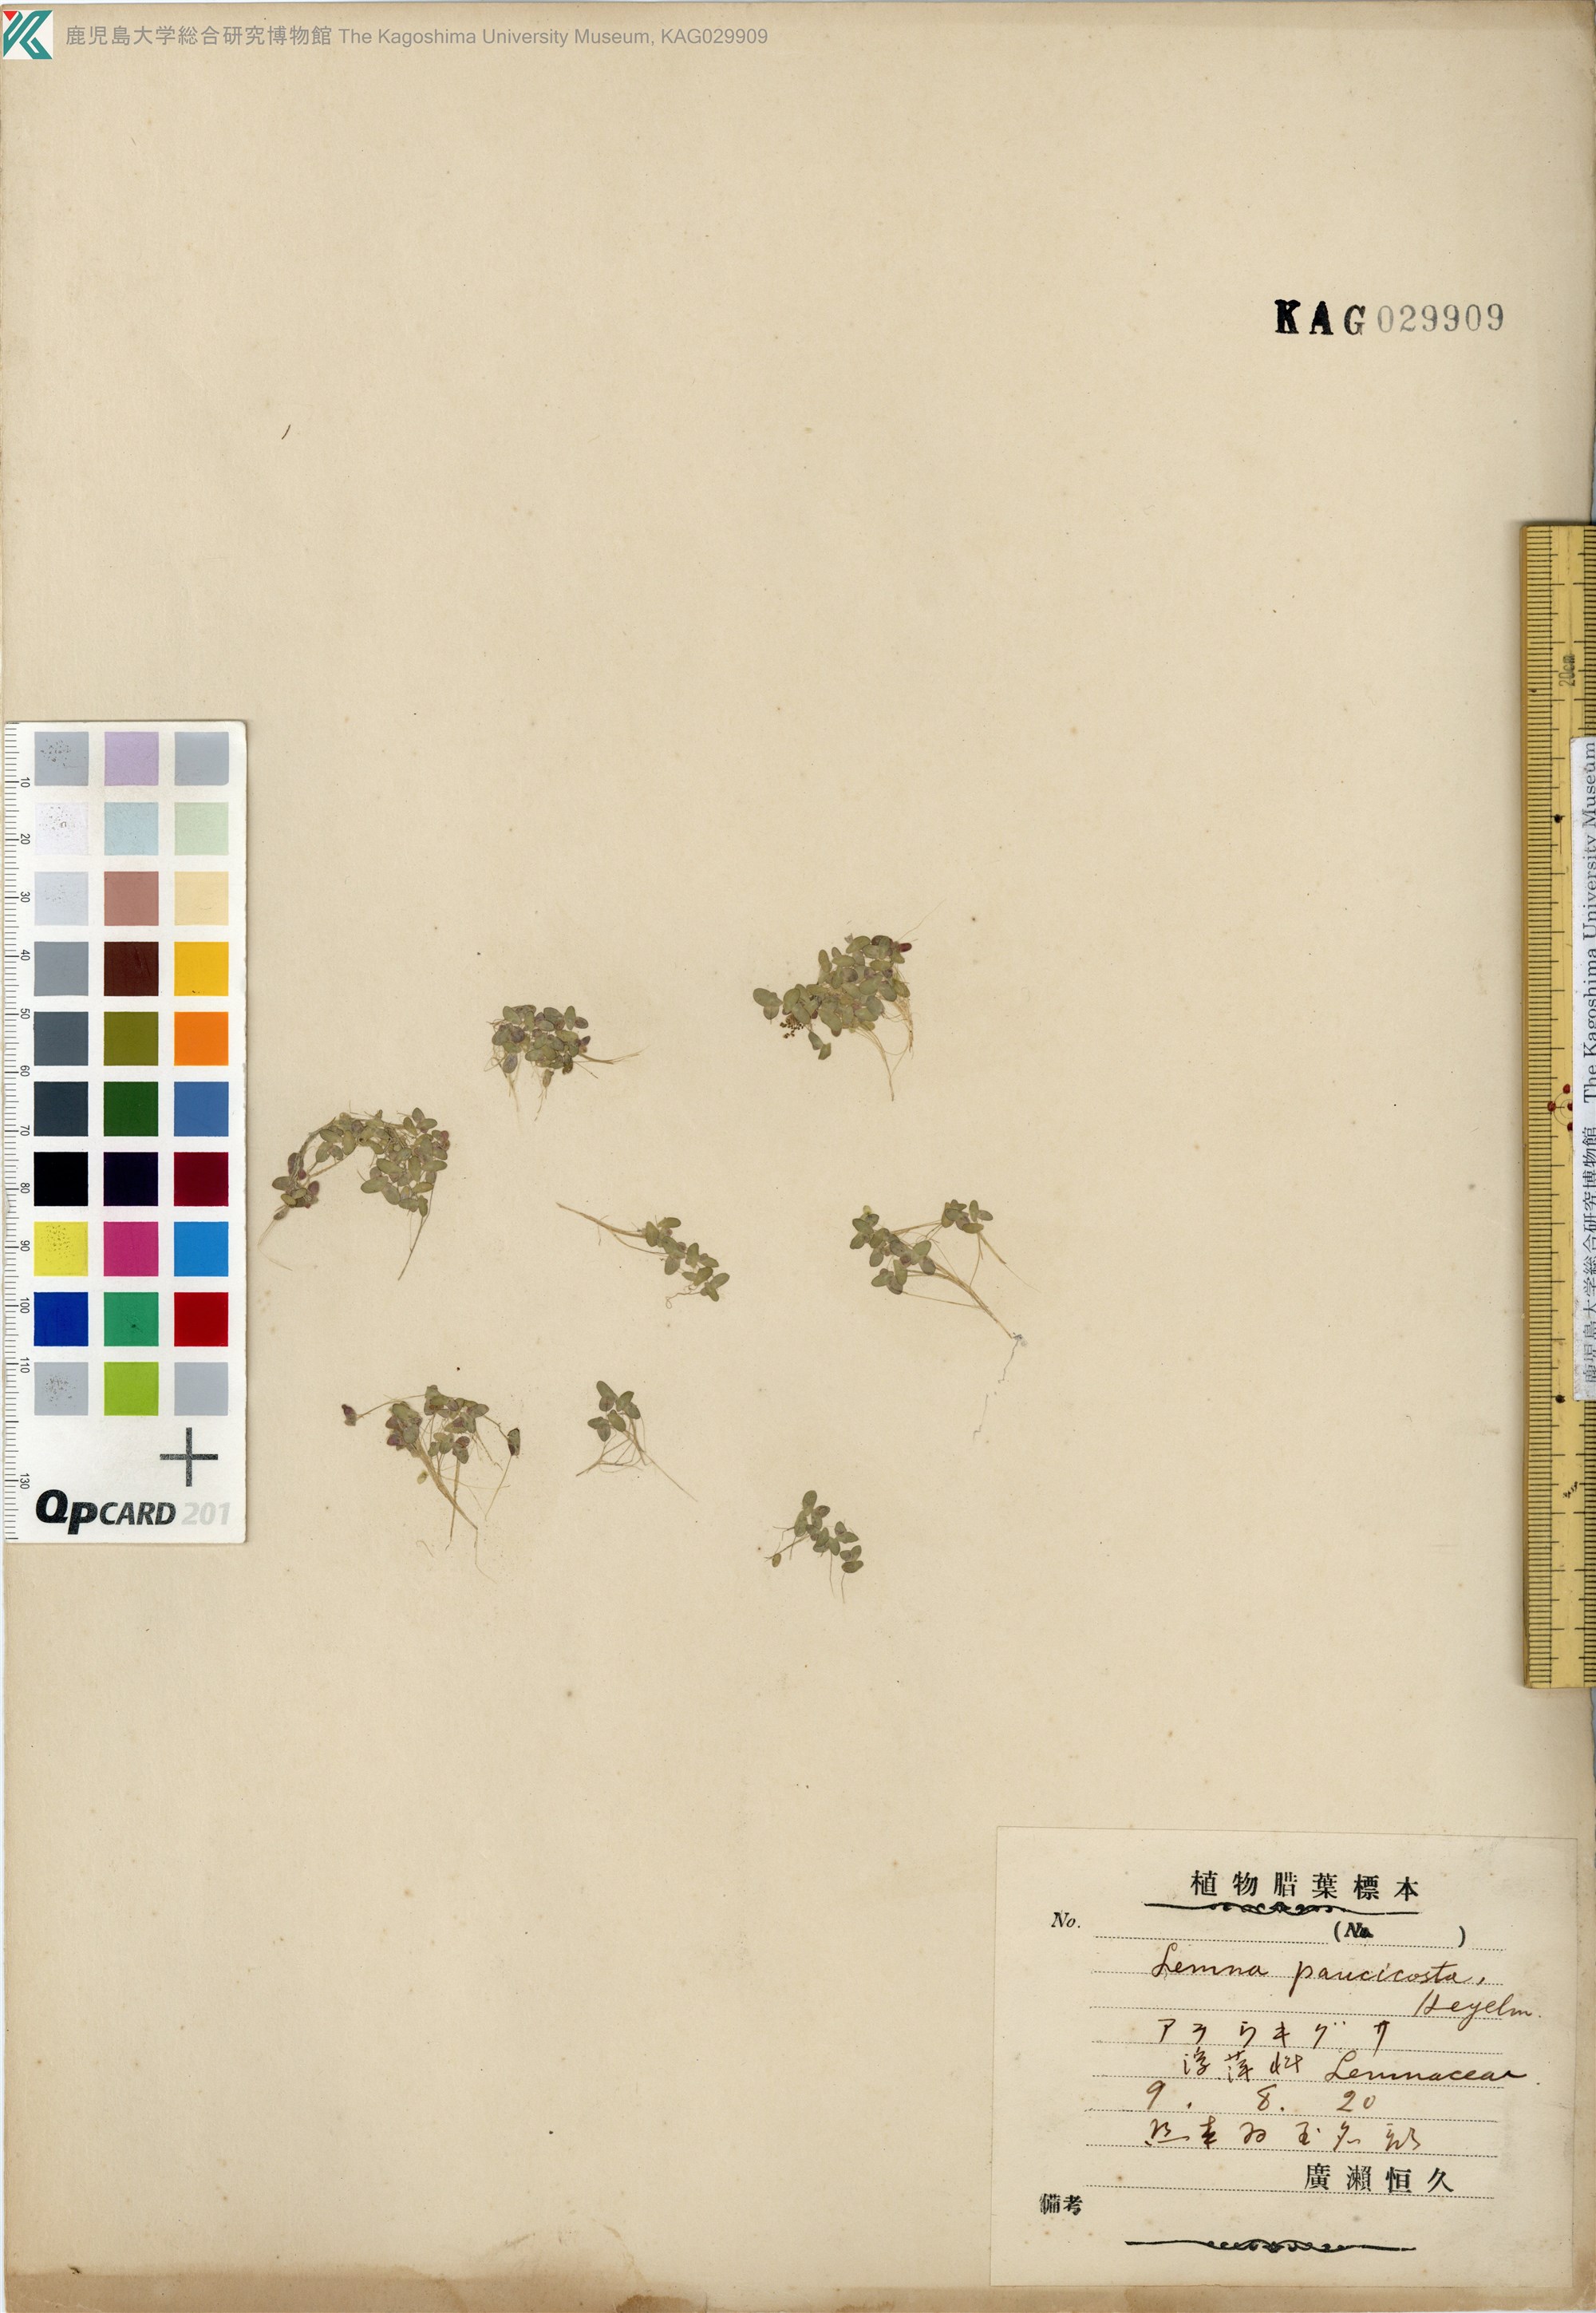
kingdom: Plantae
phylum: Tracheophyta
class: Liliopsida
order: Alismatales
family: Araceae
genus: Lemna
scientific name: Lemna aequinoctialis
